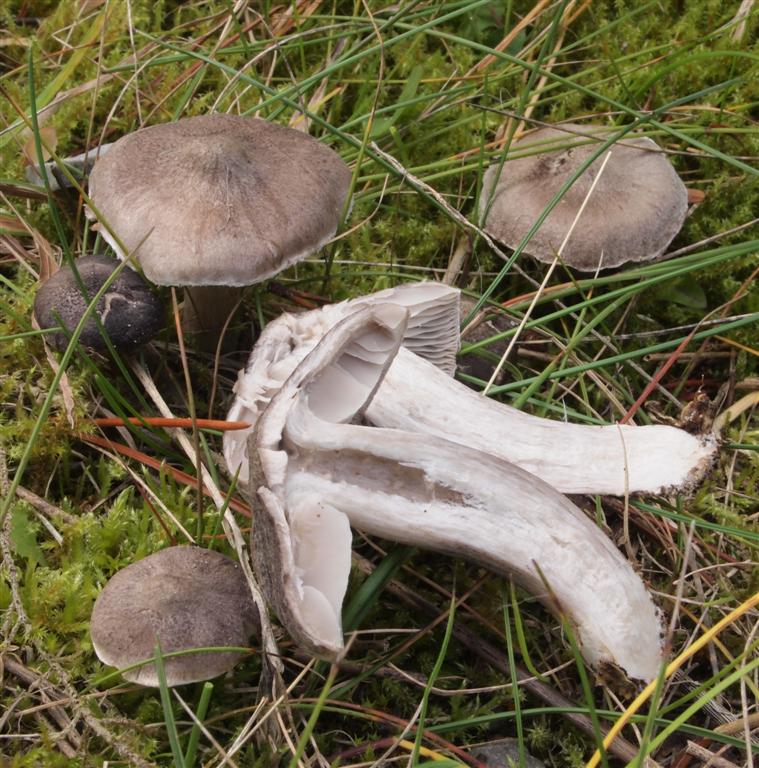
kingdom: Fungi
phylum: Basidiomycota
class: Agaricomycetes
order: Agaricales
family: Tricholomataceae
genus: Tricholoma
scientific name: Tricholoma terreum
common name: jordfarvet ridderhat
